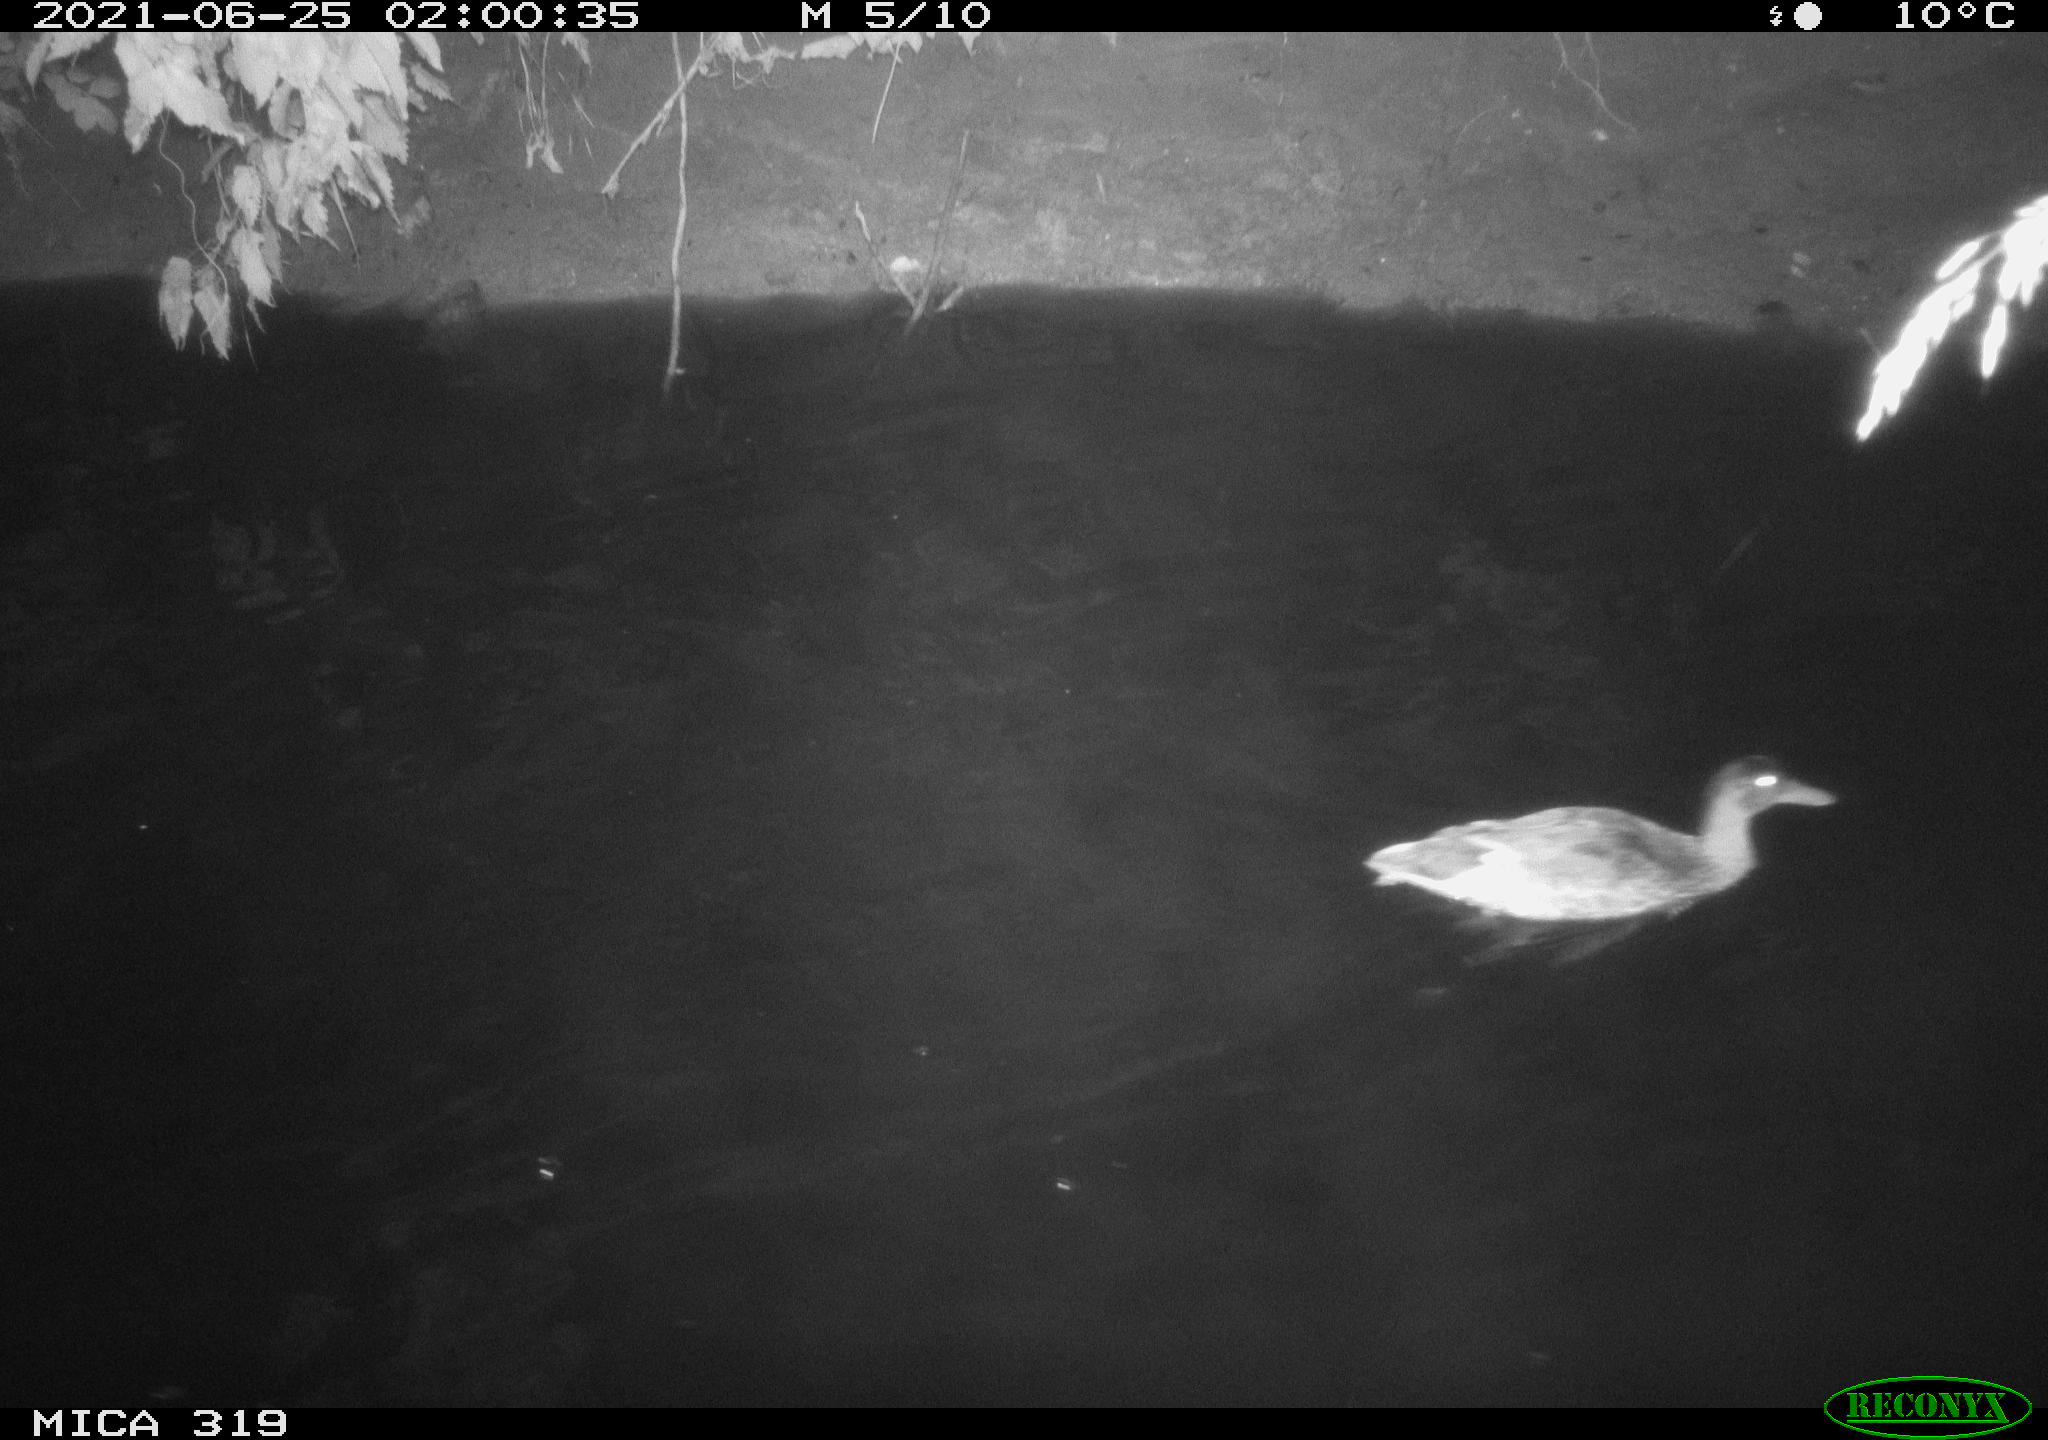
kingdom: Animalia
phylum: Chordata
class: Aves
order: Anseriformes
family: Anatidae
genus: Anas
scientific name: Anas platyrhynchos
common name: Mallard
